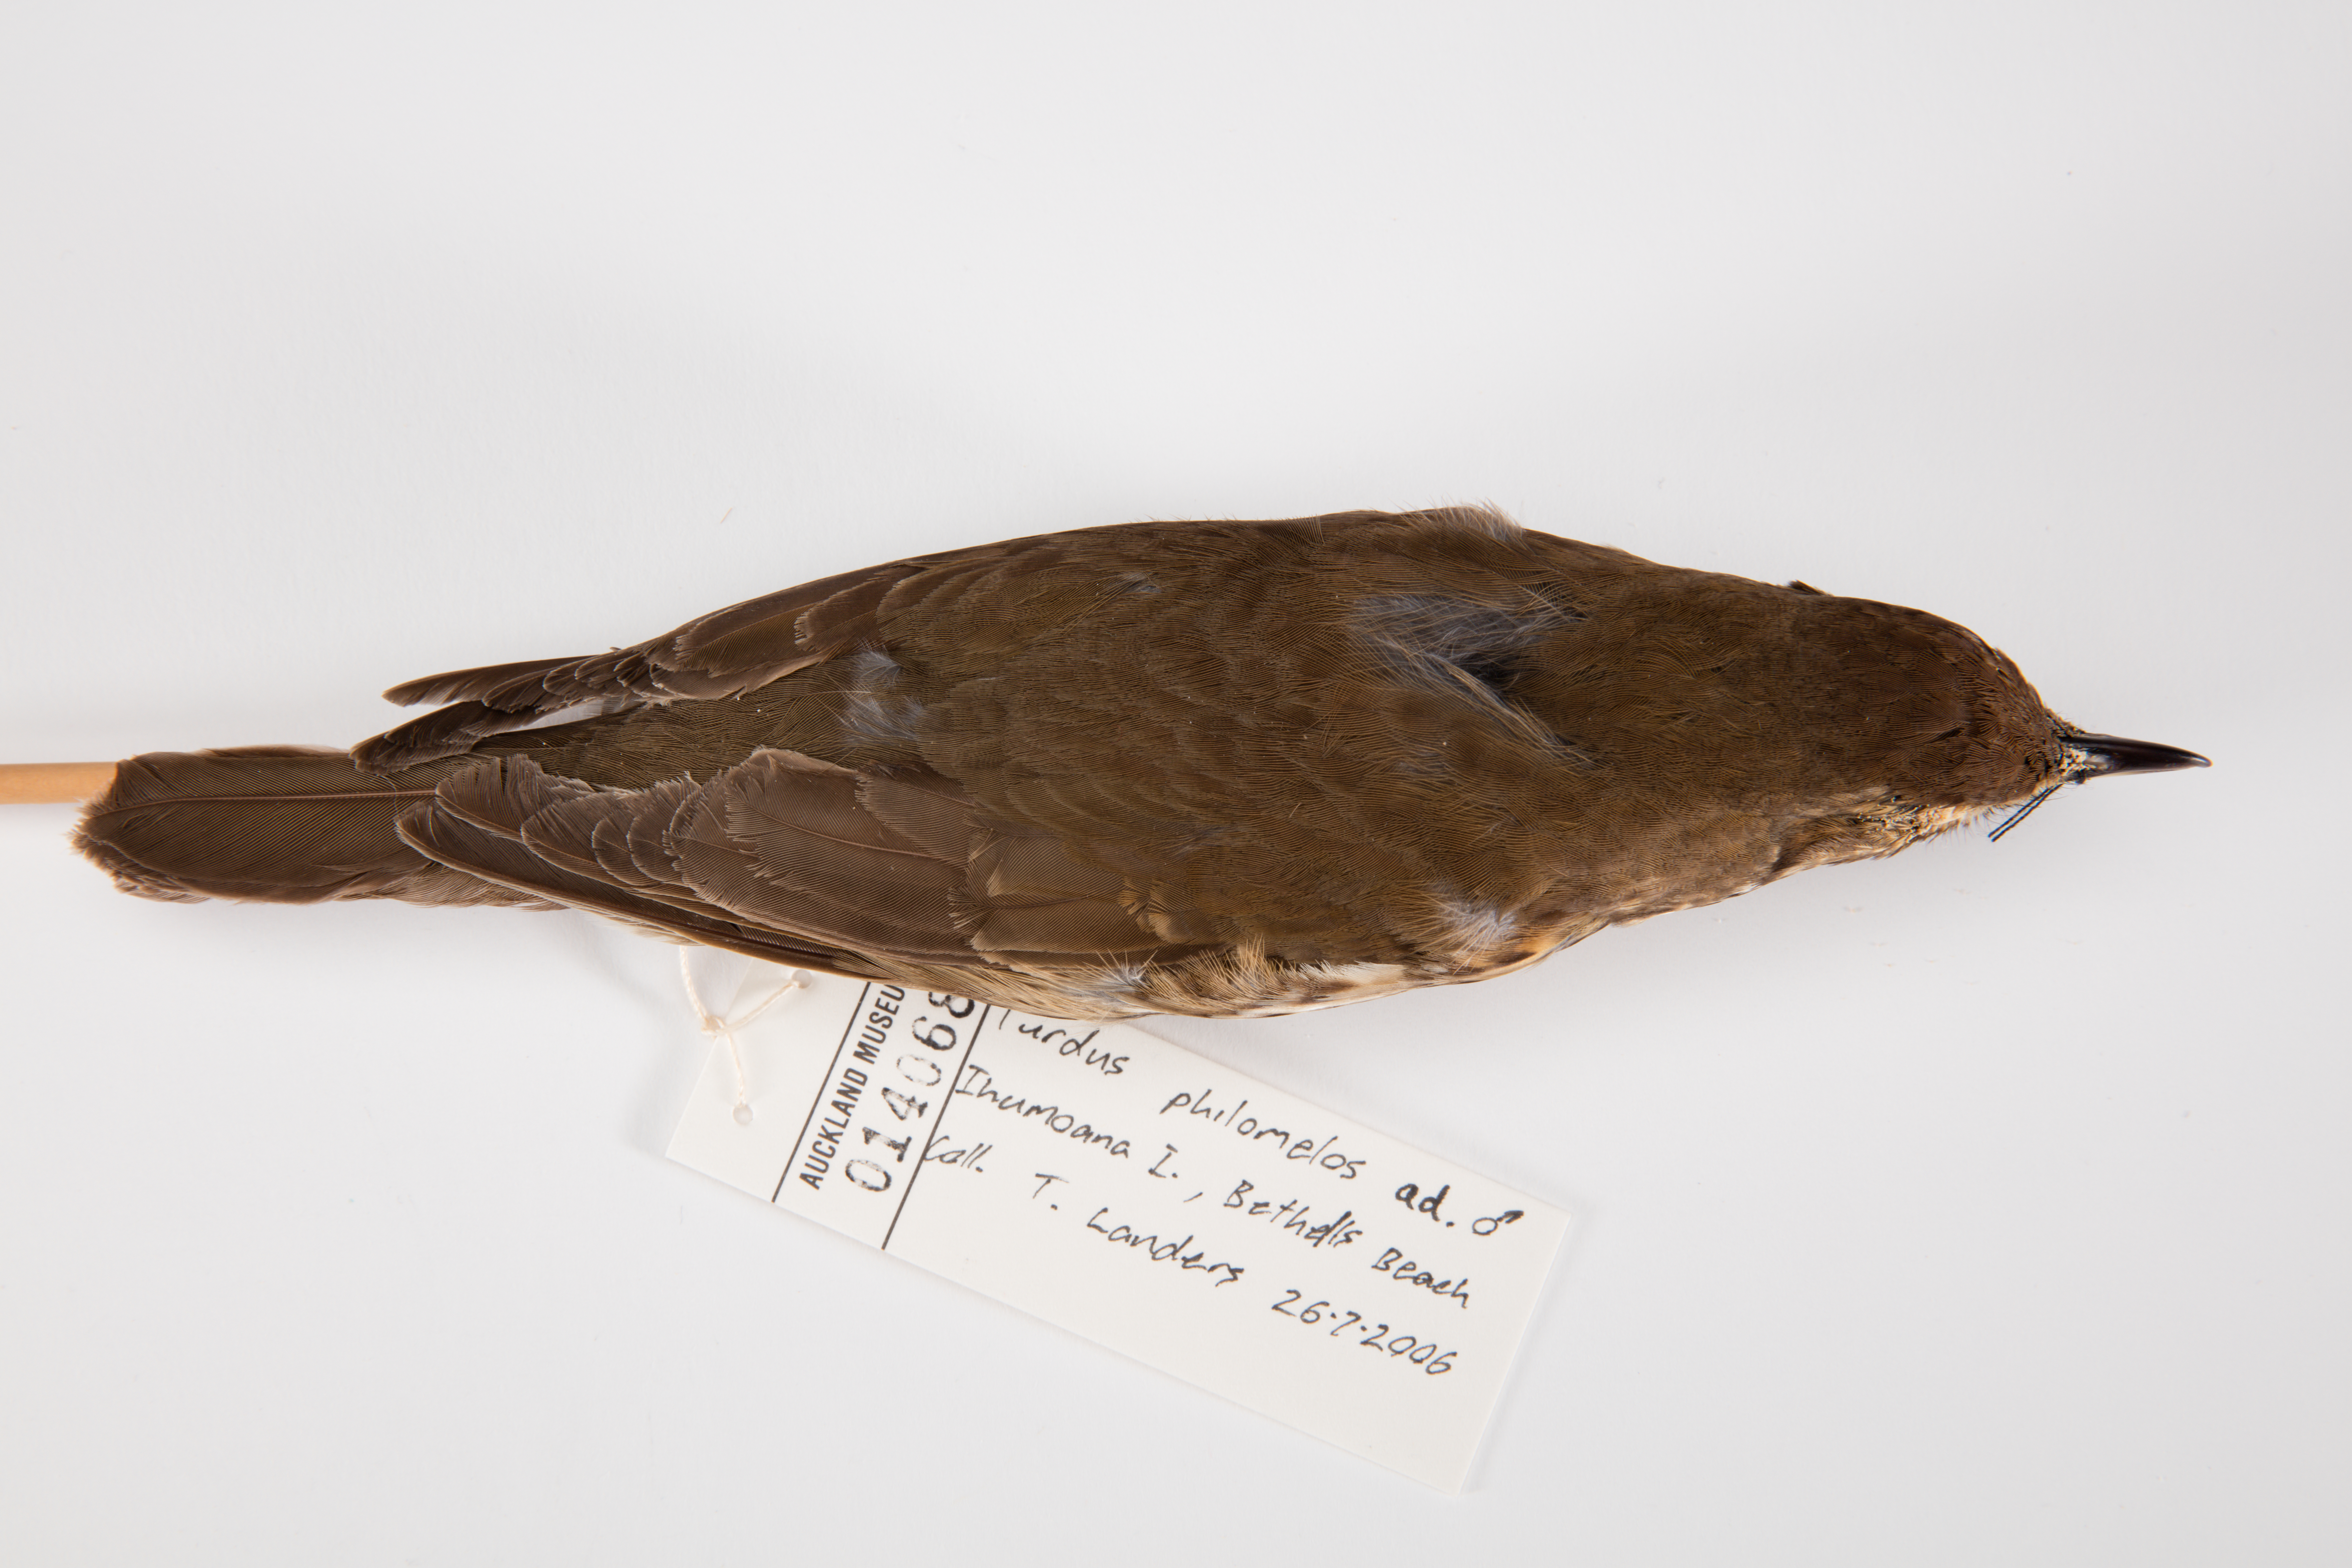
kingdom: Animalia
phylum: Chordata
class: Aves
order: Passeriformes
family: Turdidae
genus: Turdus
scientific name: Turdus philomelos
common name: Song thrush
